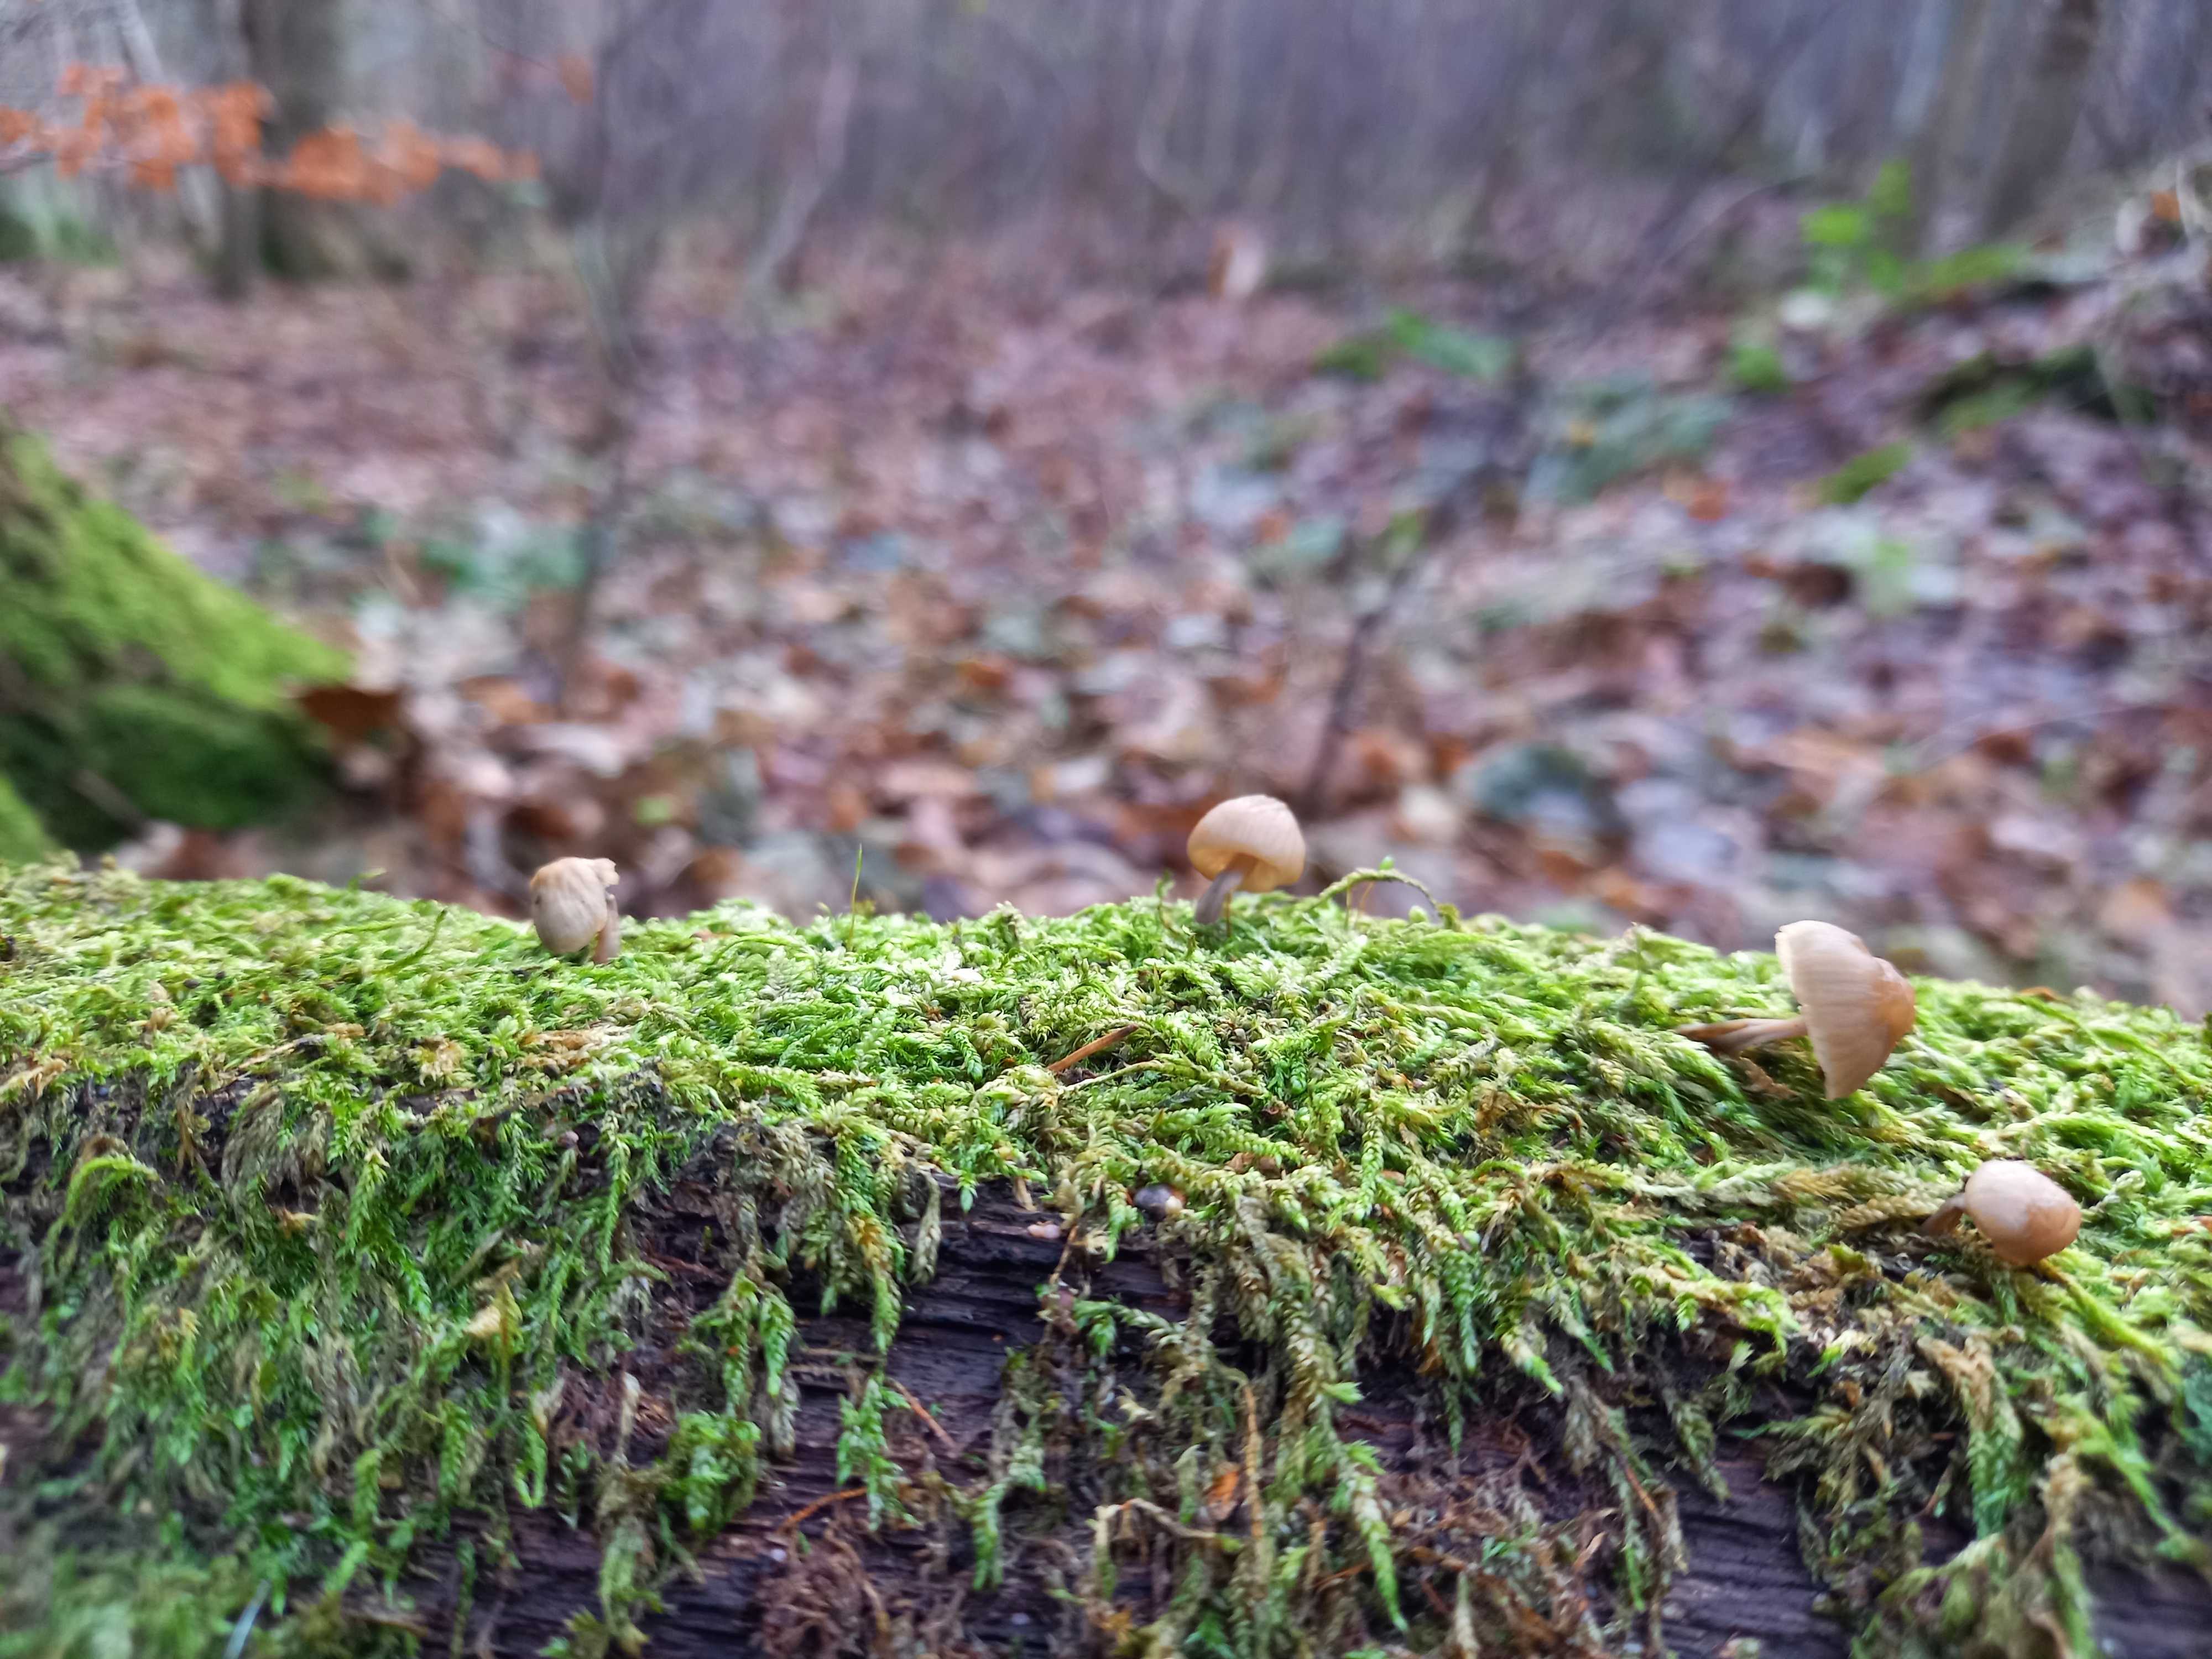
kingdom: Fungi
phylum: Basidiomycota
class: Agaricomycetes
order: Agaricales
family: Mycenaceae
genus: Mycena
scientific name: Mycena galericulata
